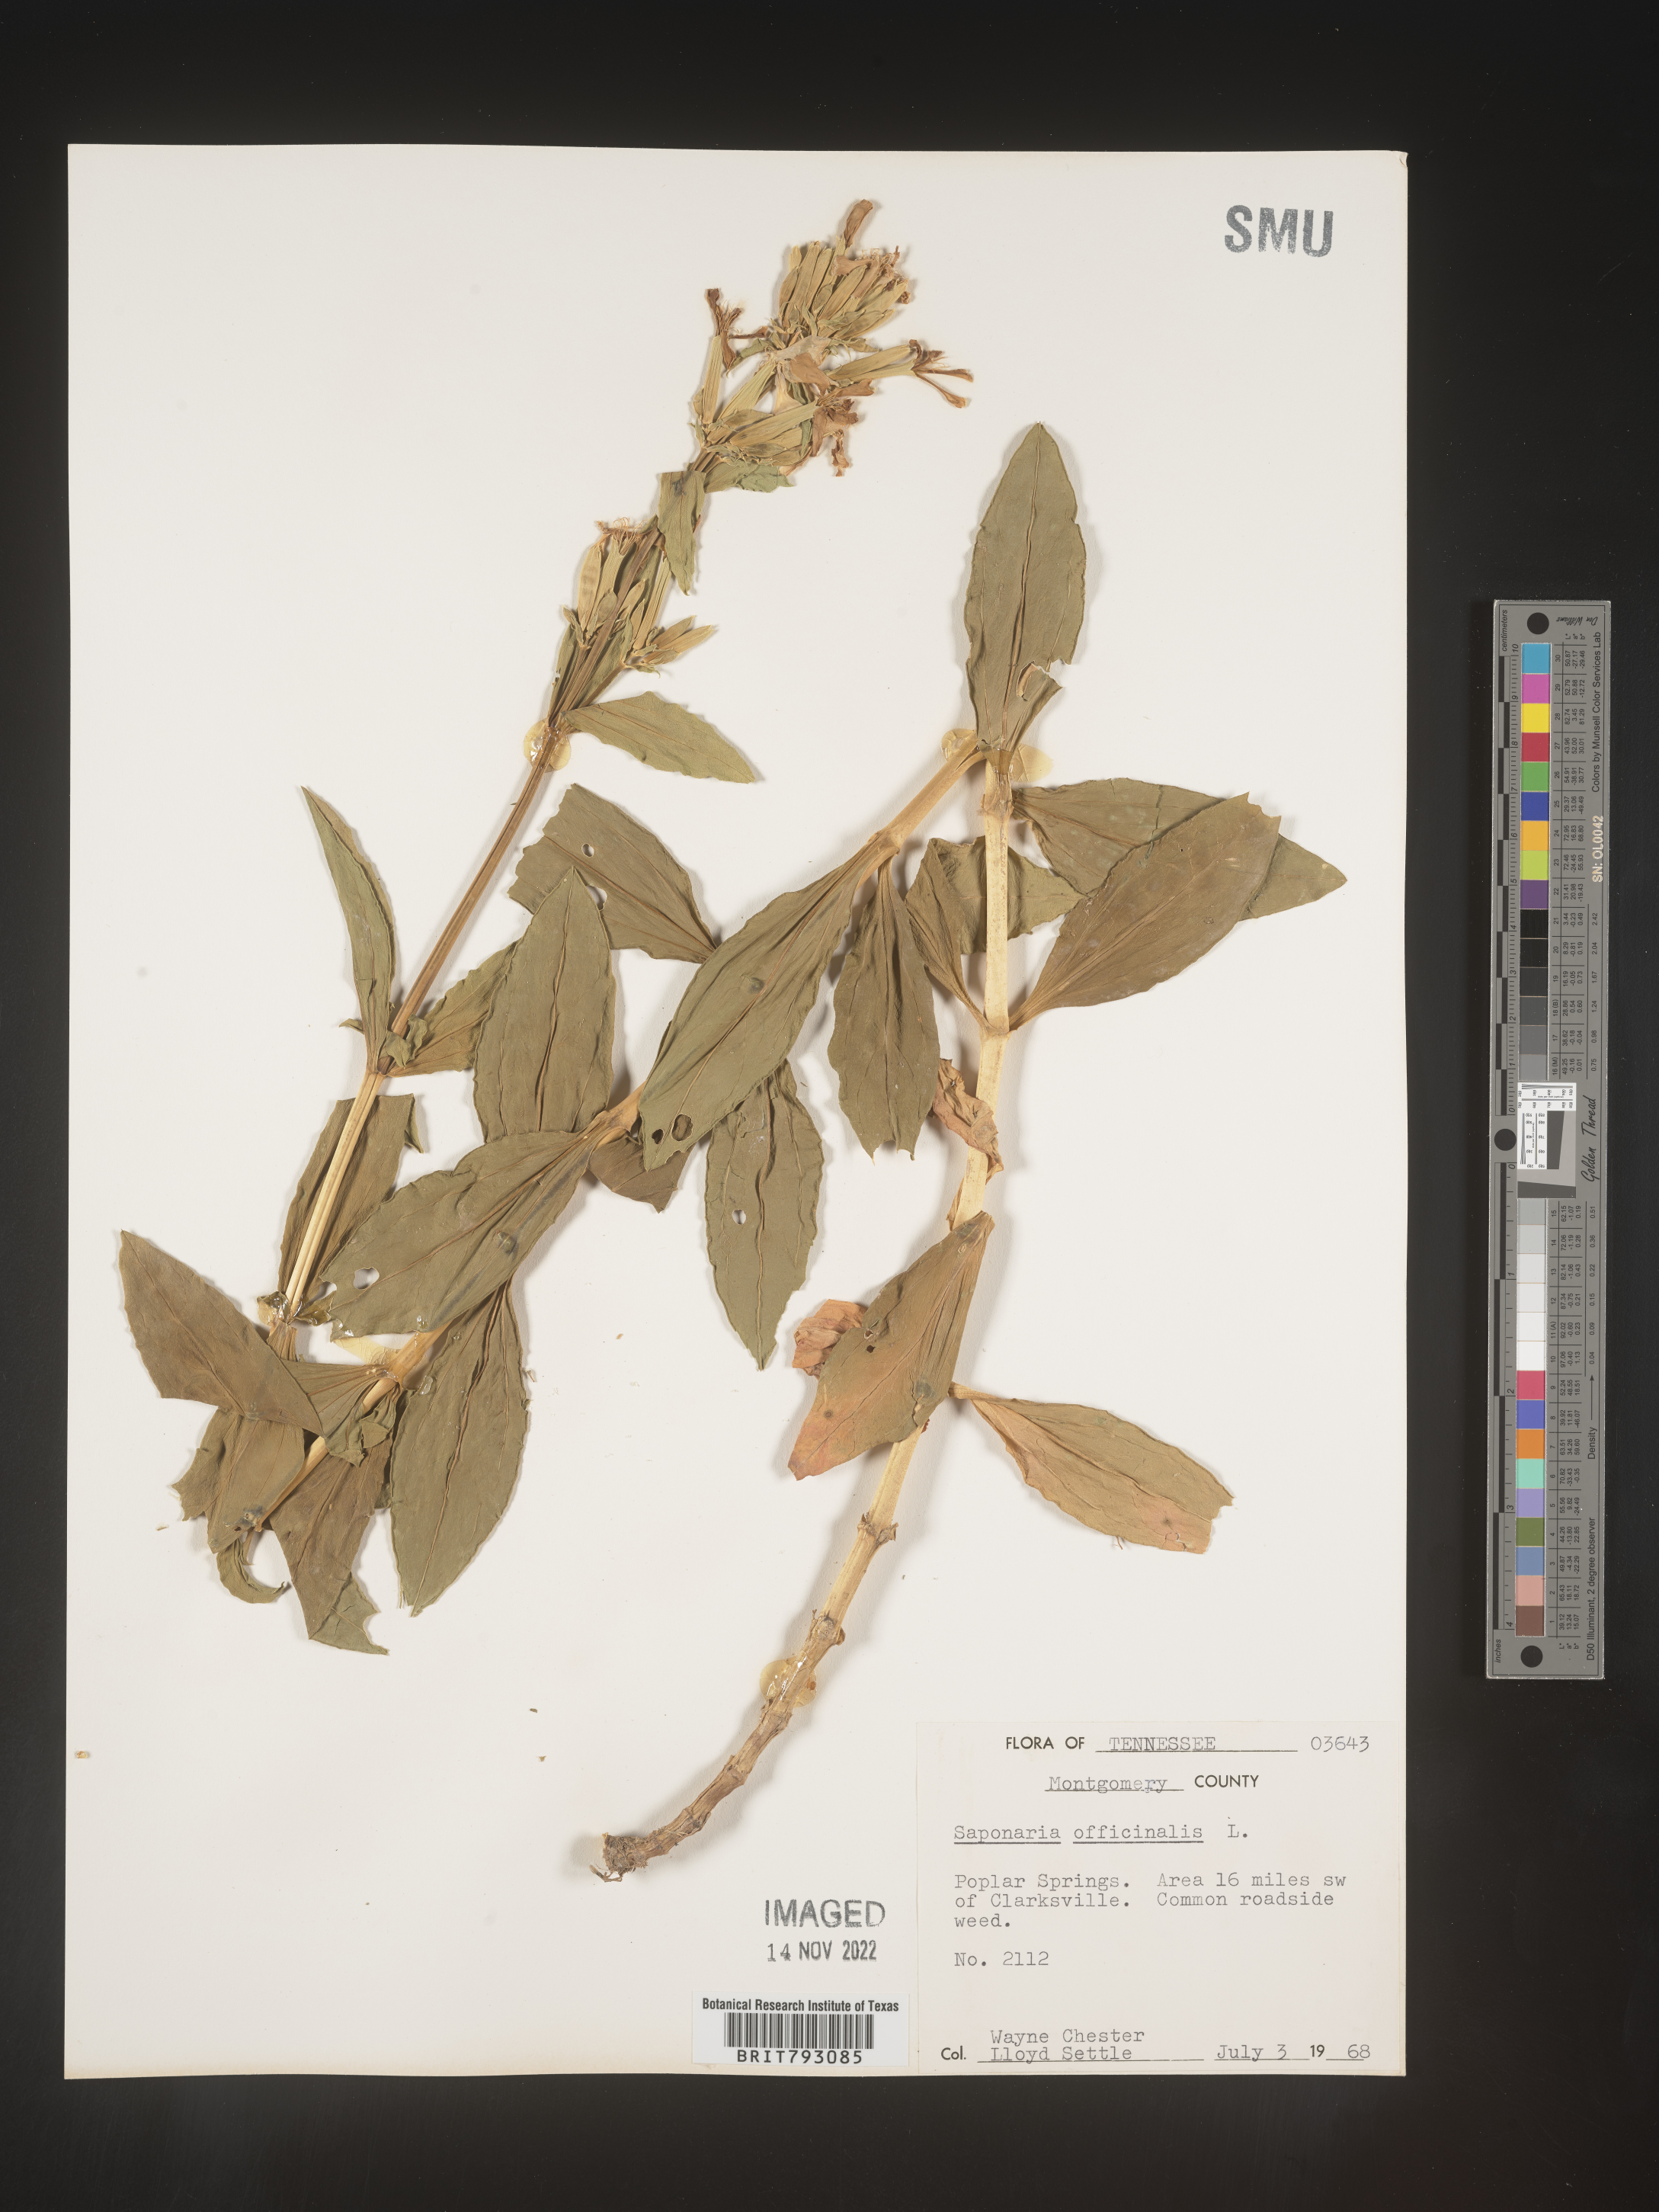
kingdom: Plantae
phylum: Tracheophyta
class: Magnoliopsida
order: Caryophyllales
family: Caryophyllaceae
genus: Saponaria
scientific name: Saponaria officinalis
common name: Soapwort
